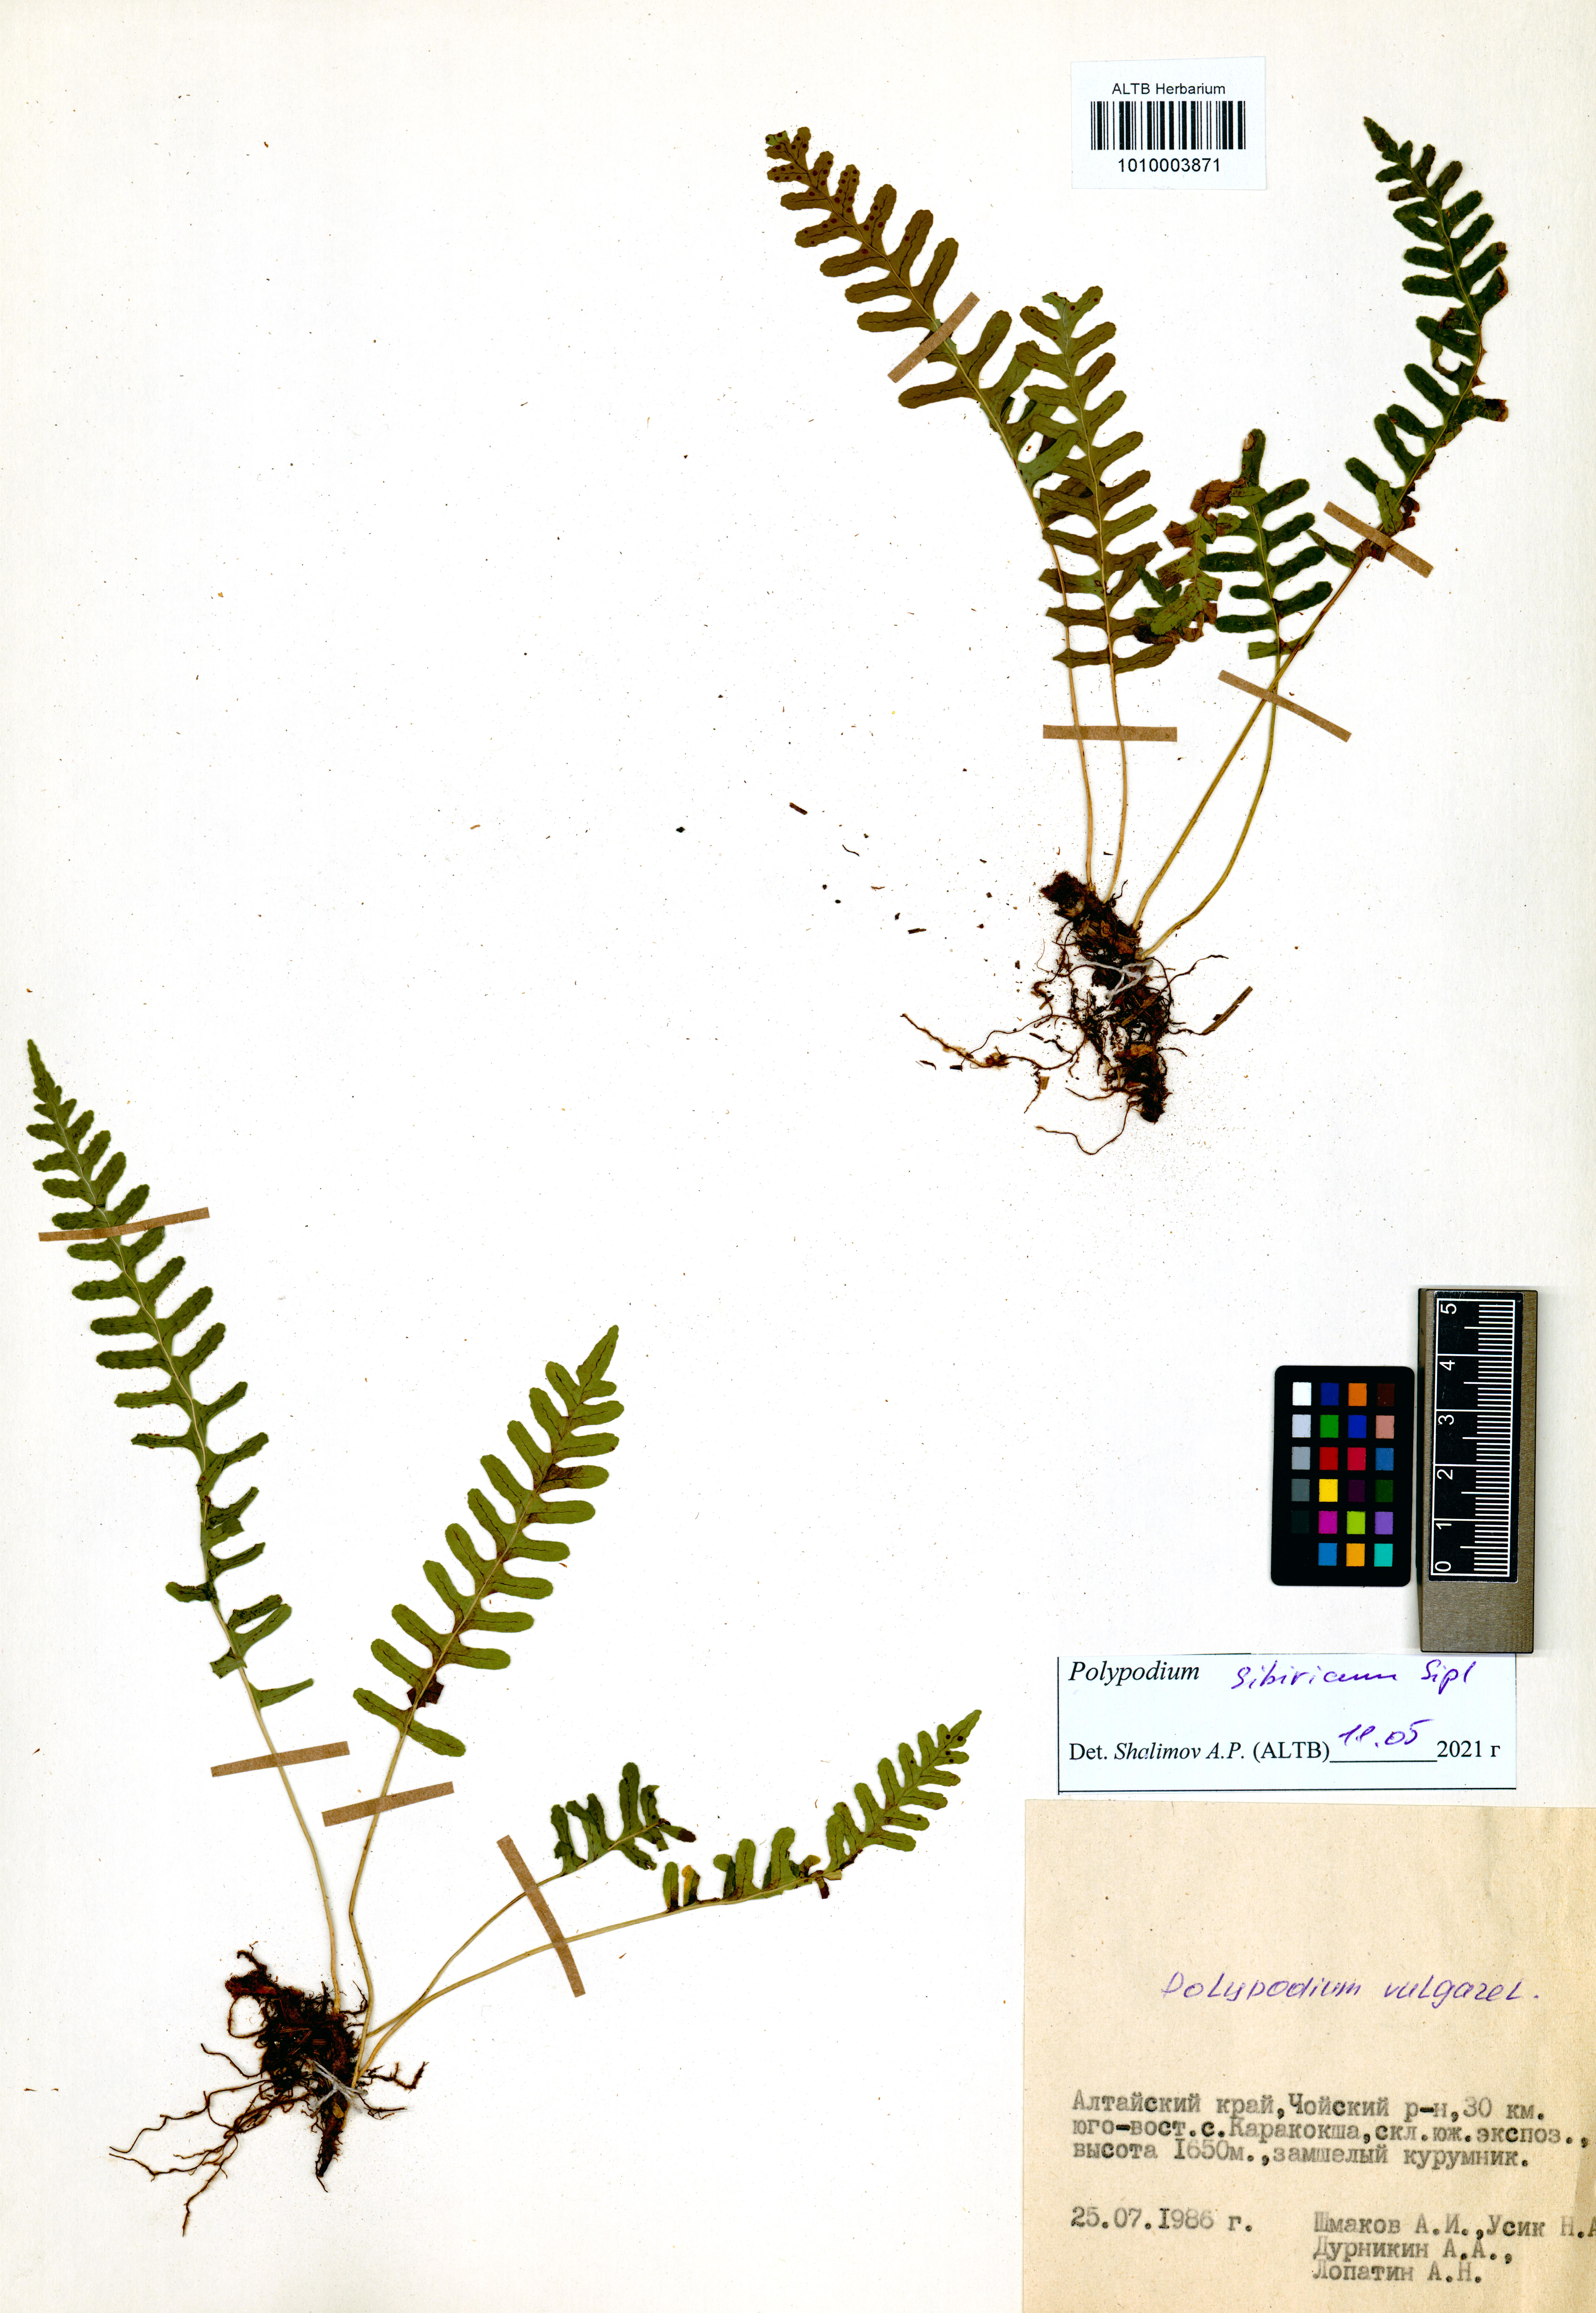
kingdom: Plantae
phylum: Tracheophyta
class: Polypodiopsida
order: Polypodiales
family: Polypodiaceae
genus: Polypodium
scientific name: Polypodium sibiricum
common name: Siberian polypody
